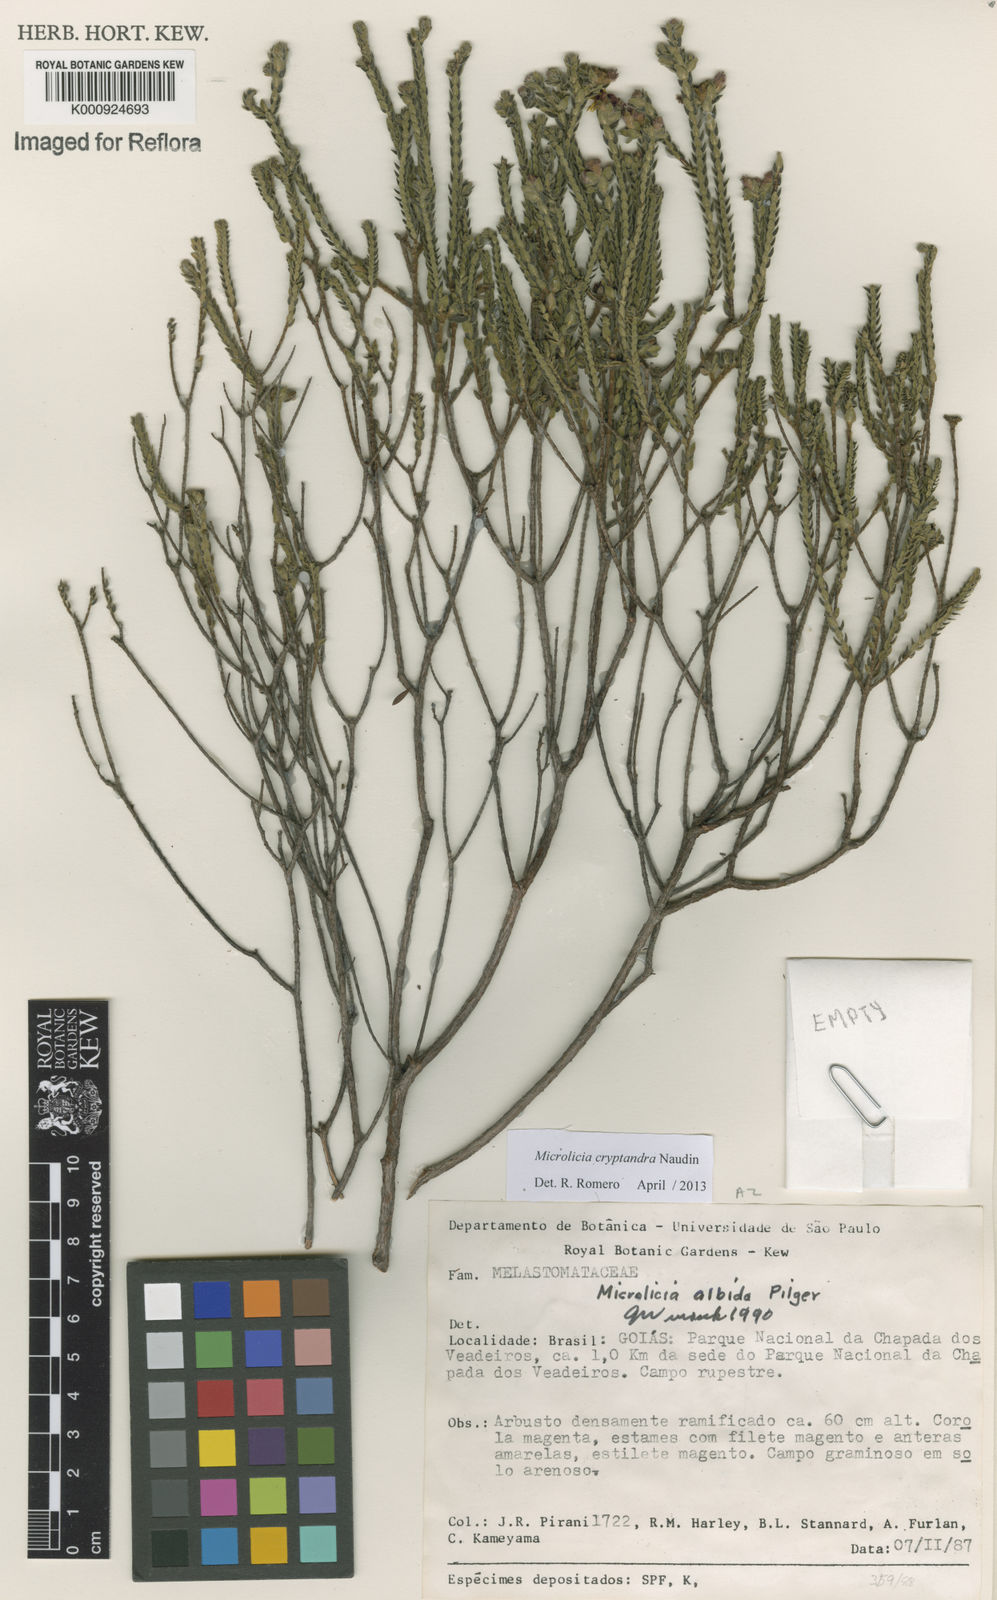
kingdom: Plantae
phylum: Tracheophyta
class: Magnoliopsida
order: Myrtales
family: Melastomataceae
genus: Microlicia
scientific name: Microlicia cryptandra
